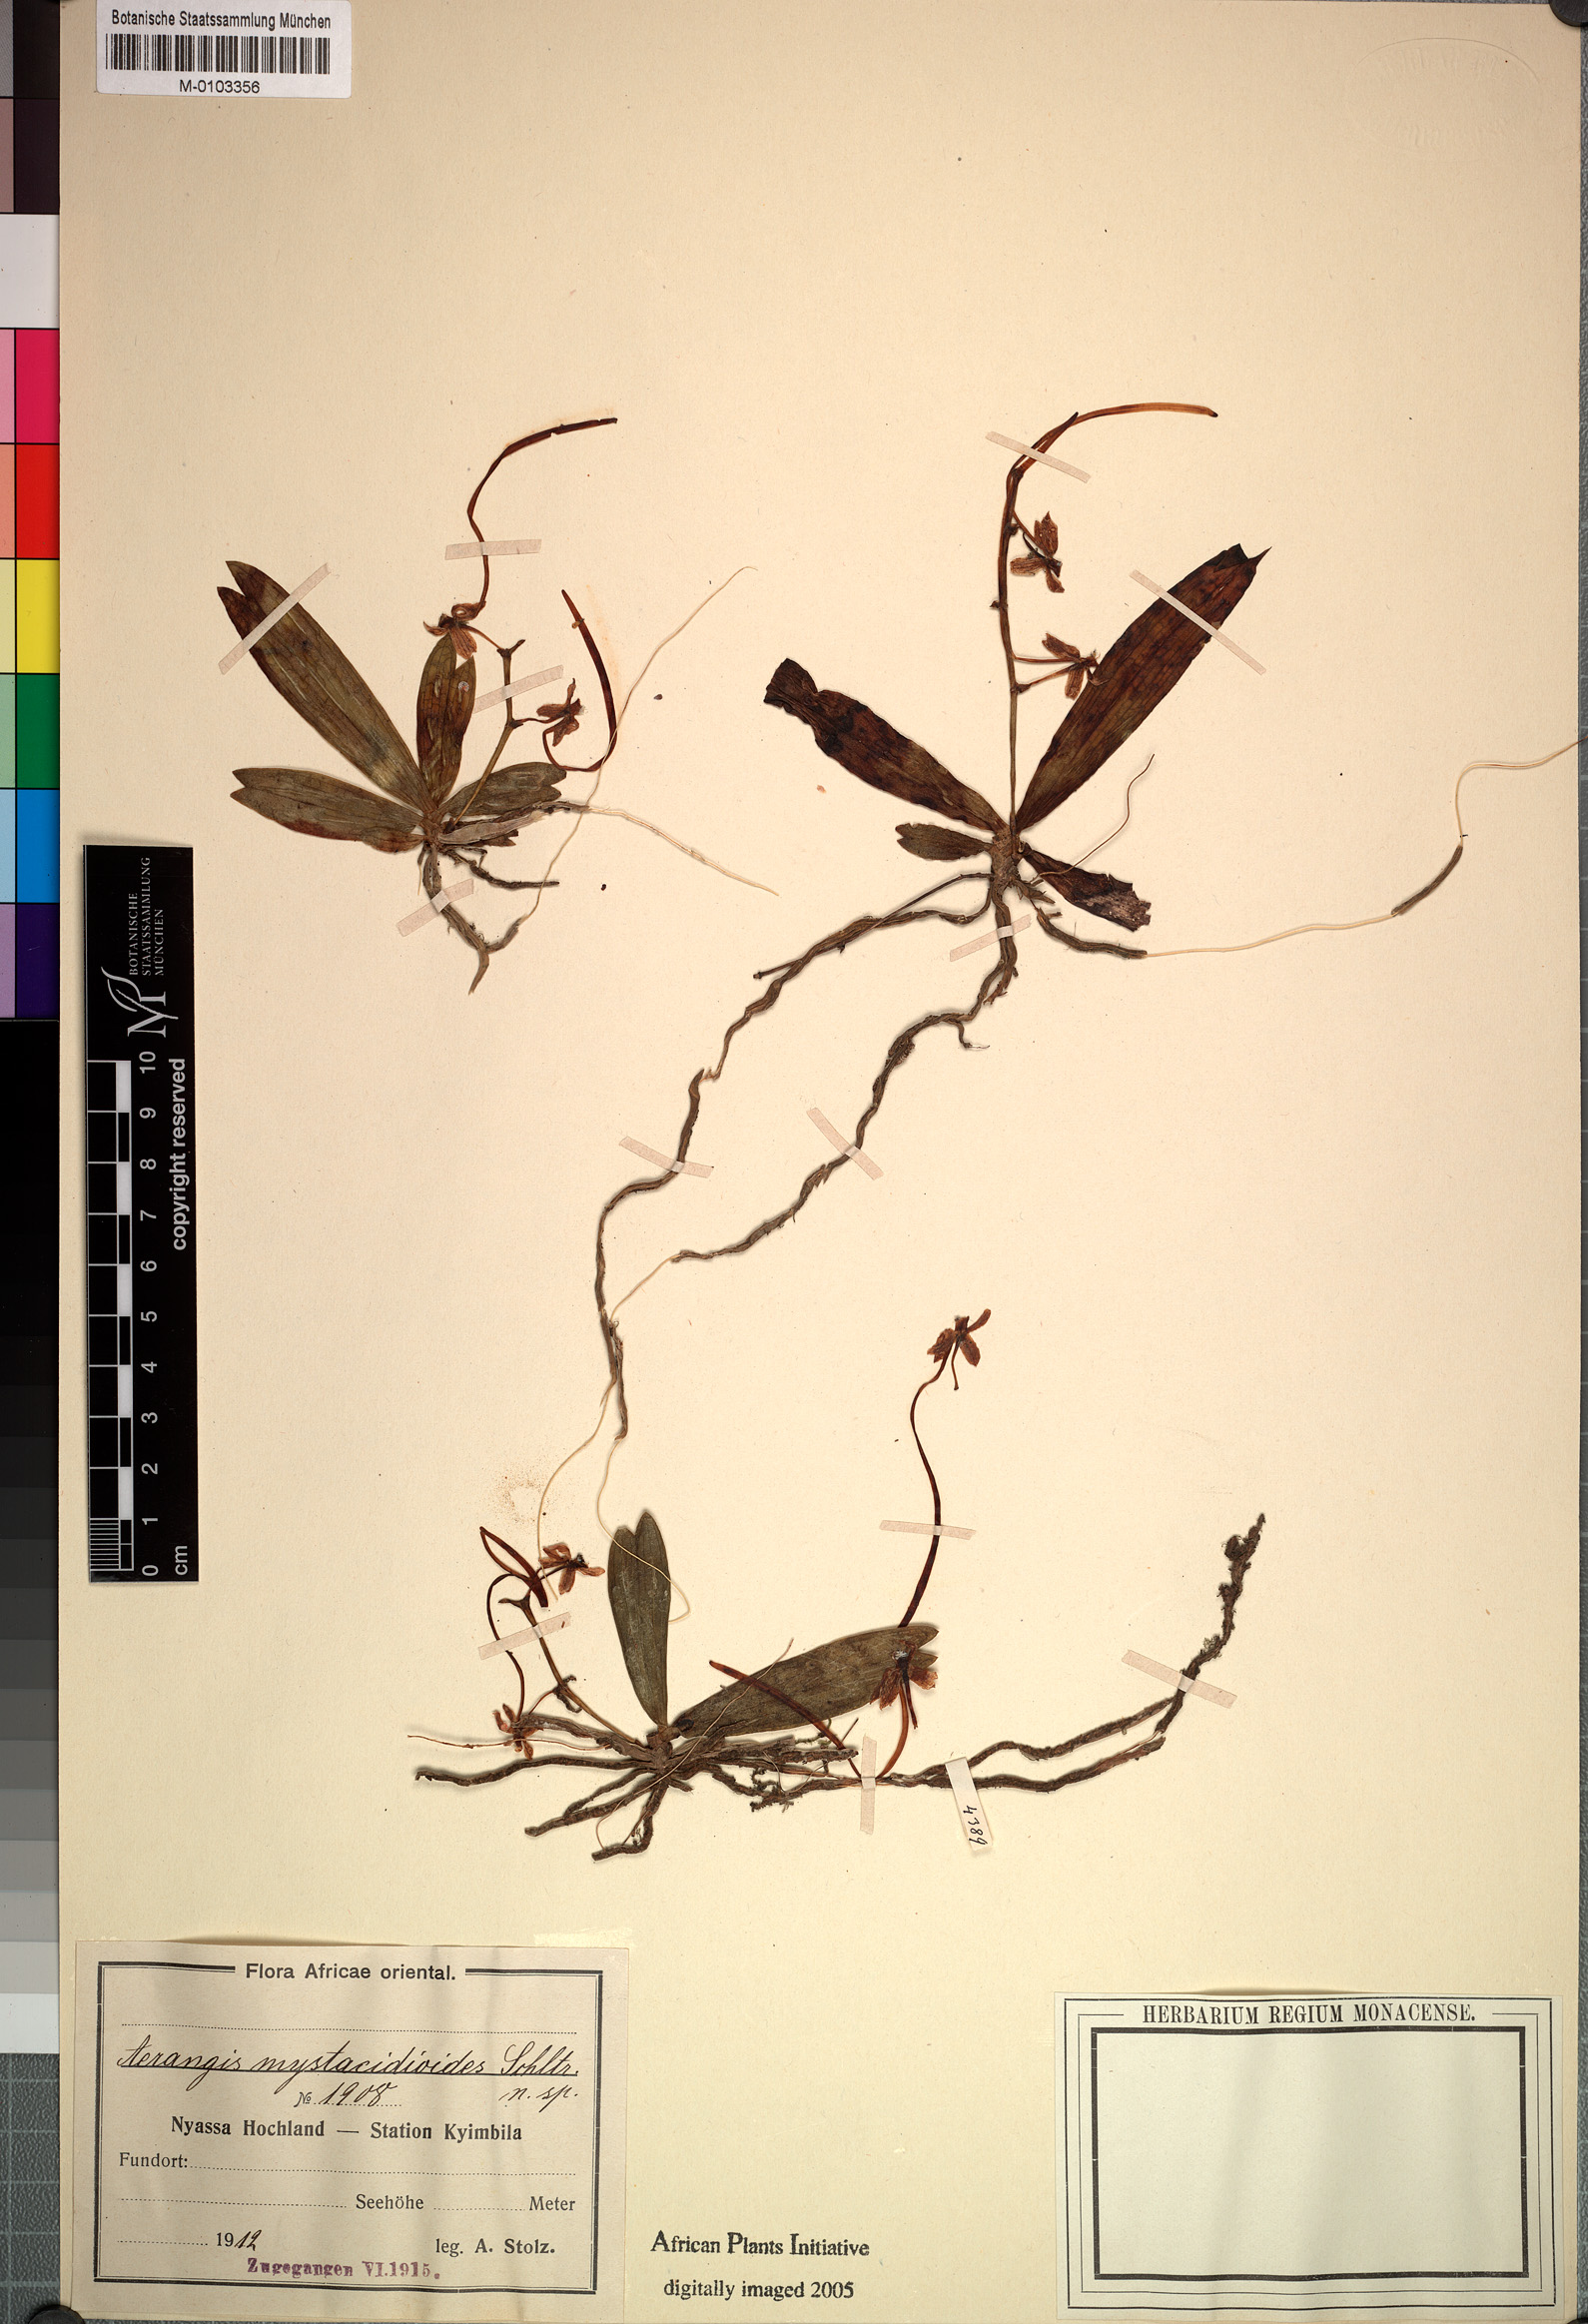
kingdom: Plantae
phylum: Tracheophyta
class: Liliopsida
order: Asparagales
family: Orchidaceae
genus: Aerangis
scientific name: Aerangis mystacidii
